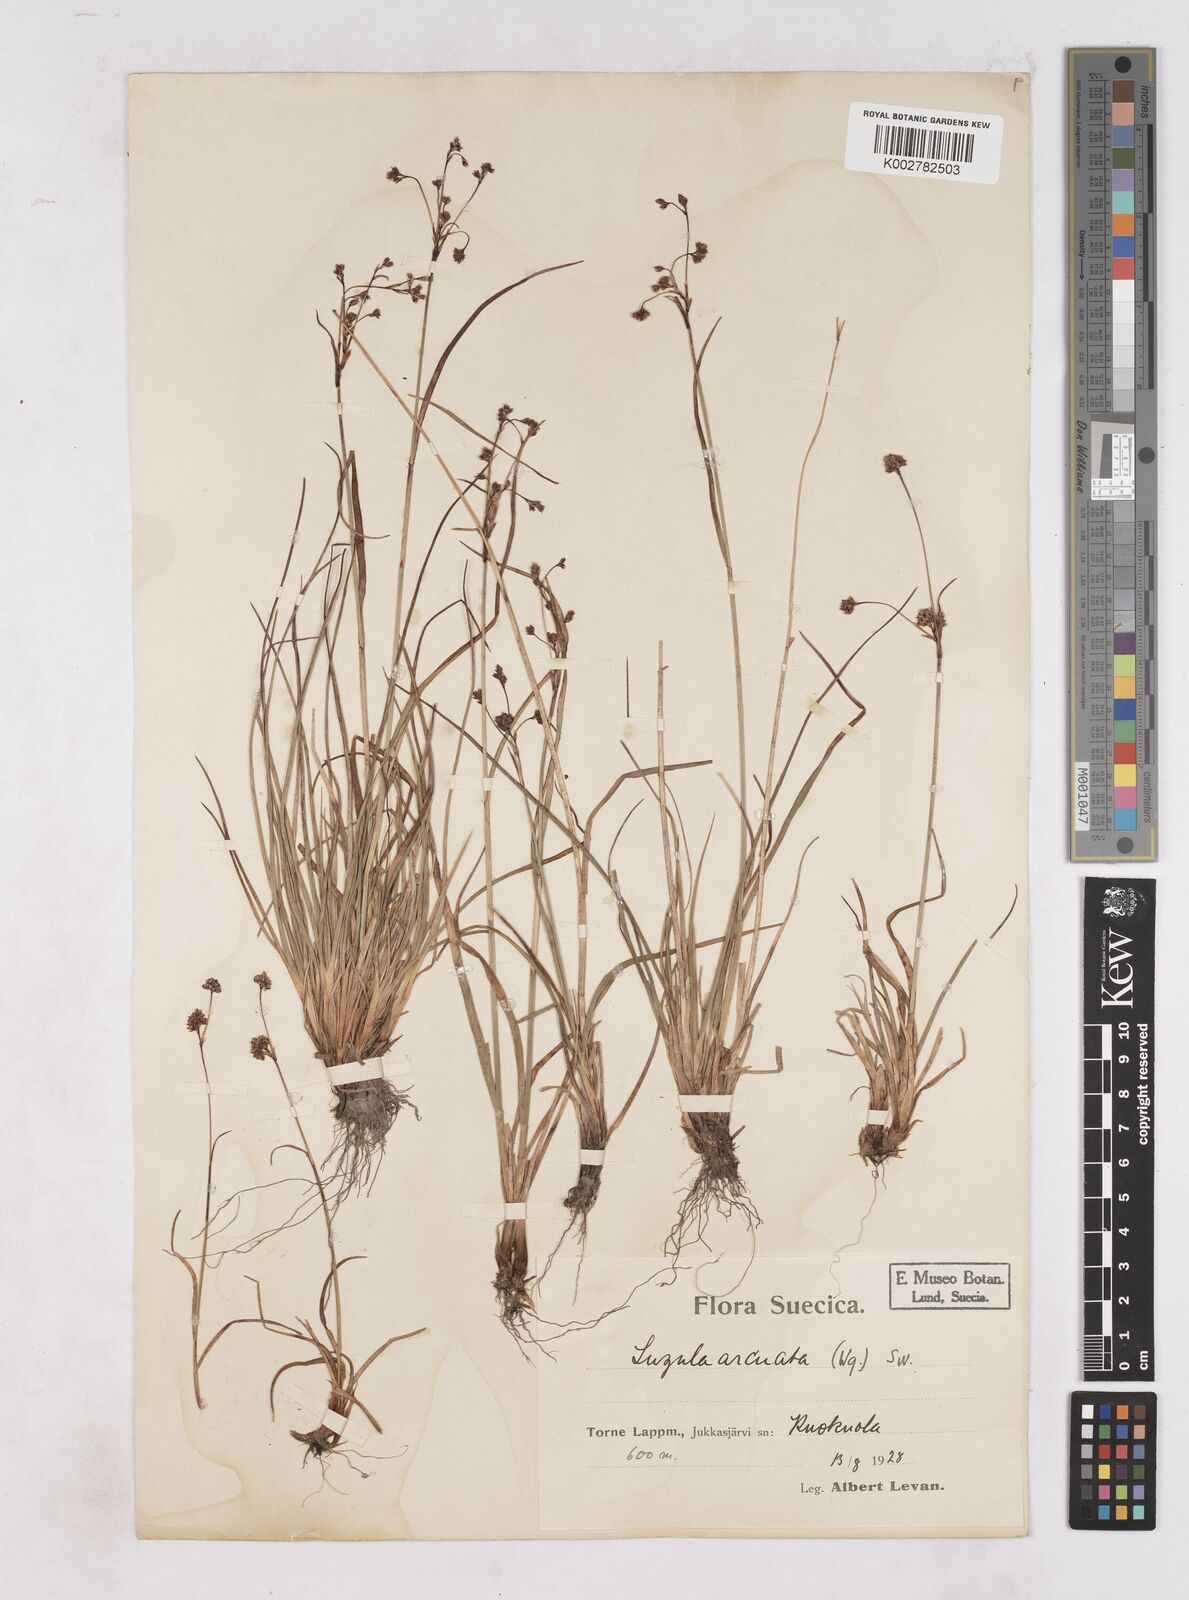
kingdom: Plantae
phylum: Tracheophyta
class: Liliopsida
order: Poales
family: Juncaceae
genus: Luzula
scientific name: Luzula arcuata
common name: Curved wood-rush
